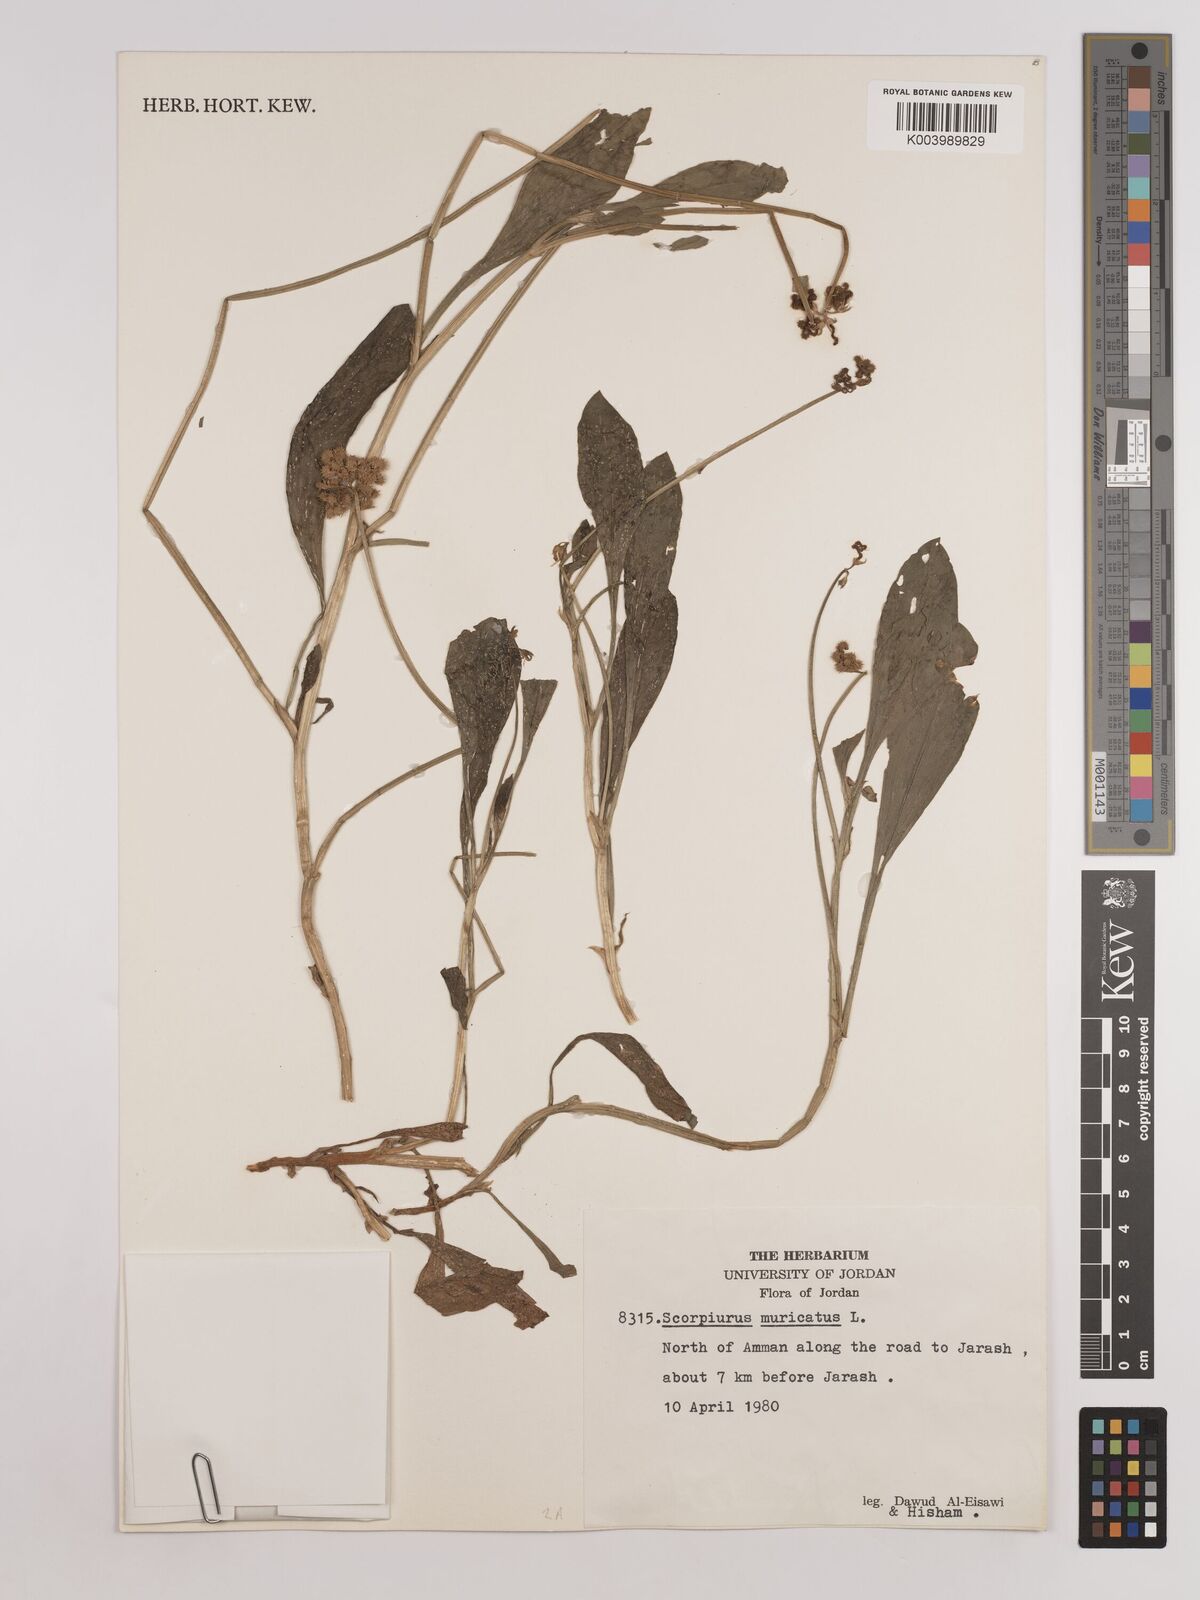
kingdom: Plantae
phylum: Tracheophyta
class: Magnoliopsida
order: Fabales
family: Fabaceae
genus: Scorpiurus
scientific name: Scorpiurus muricatus
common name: Caterpillar-plant
